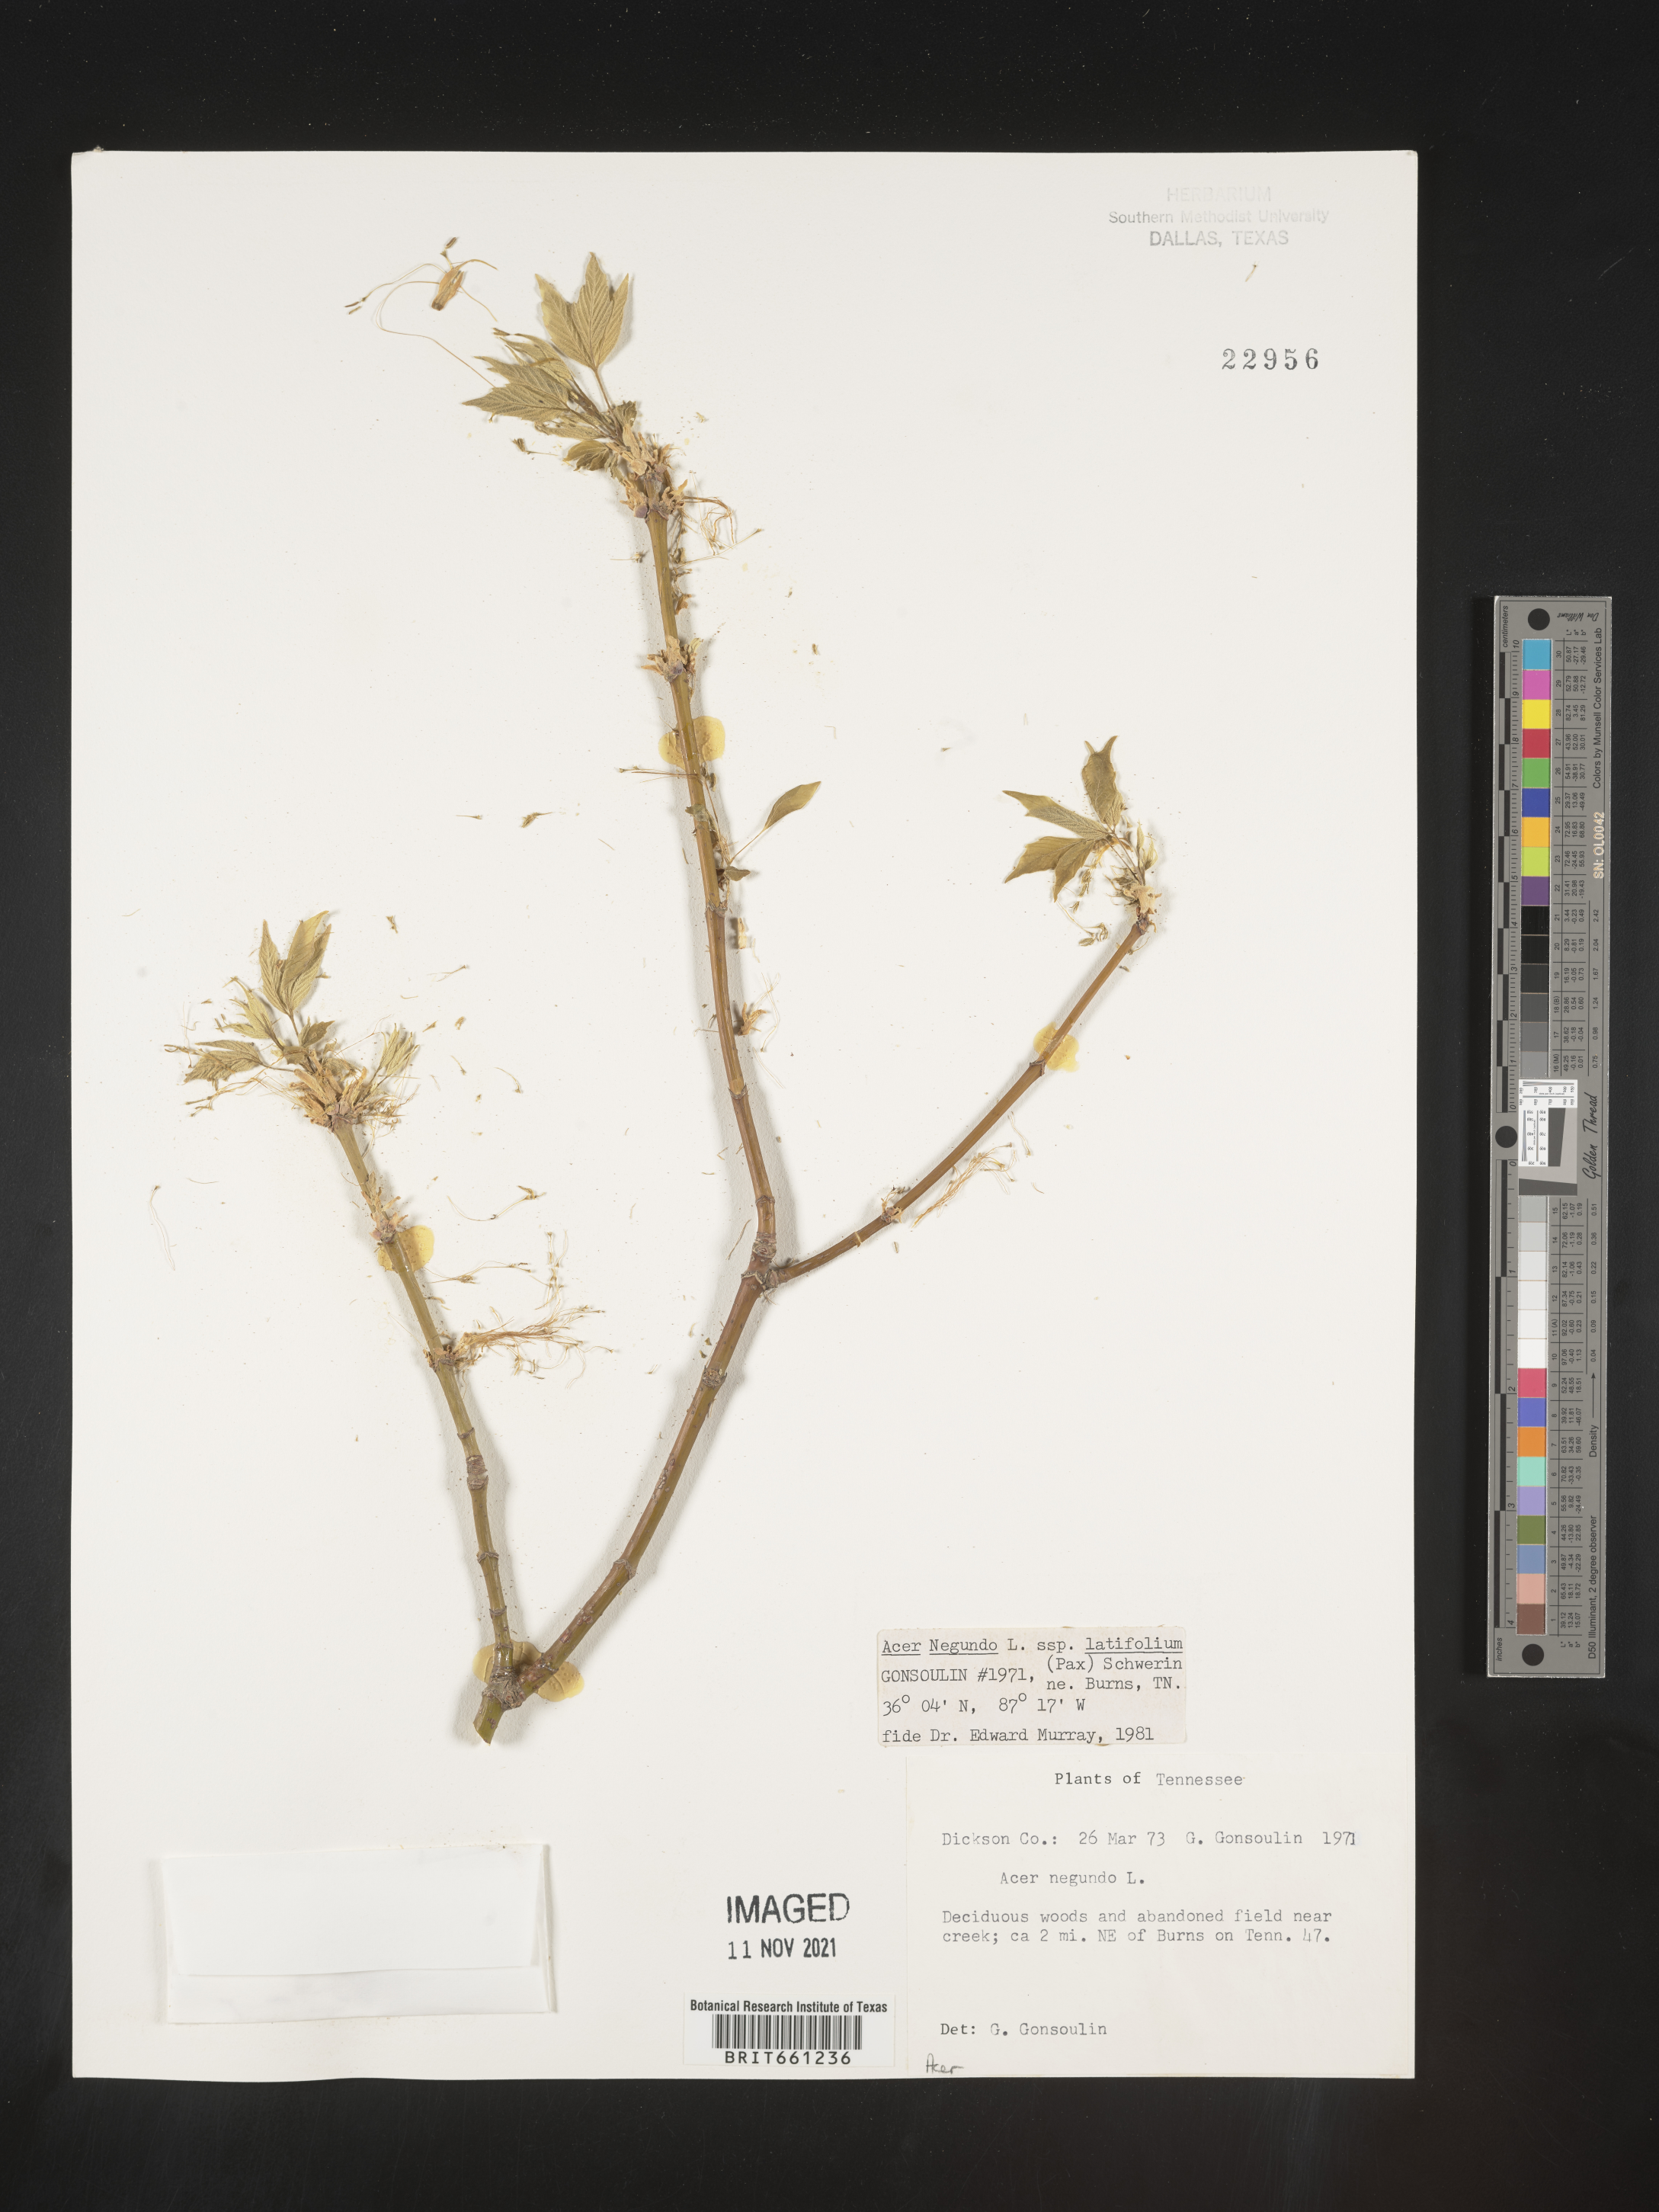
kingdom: Plantae
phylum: Tracheophyta
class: Magnoliopsida
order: Sapindales
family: Sapindaceae
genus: Acer
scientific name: Acer negundo
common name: Ashleaf maple
